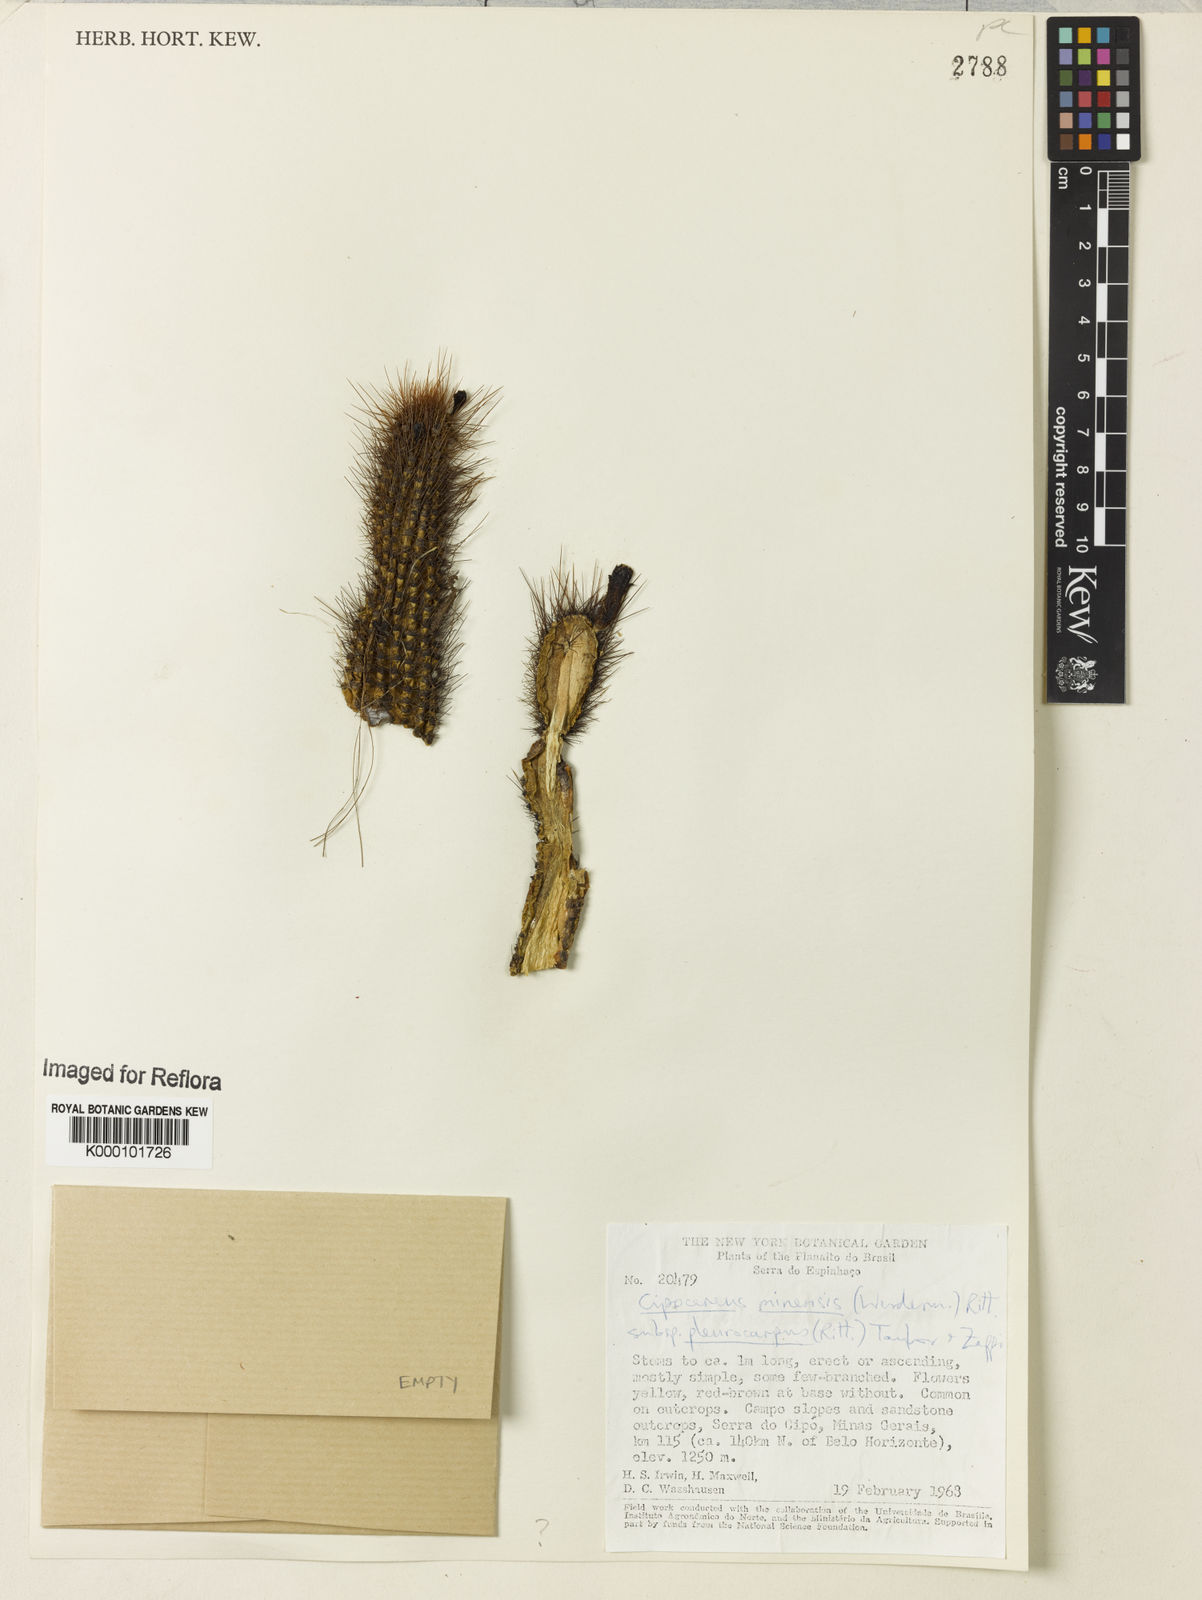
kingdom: Plantae
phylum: Tracheophyta
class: Magnoliopsida
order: Caryophyllales
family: Cactaceae
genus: Cipocereus
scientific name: Cipocereus minensis
